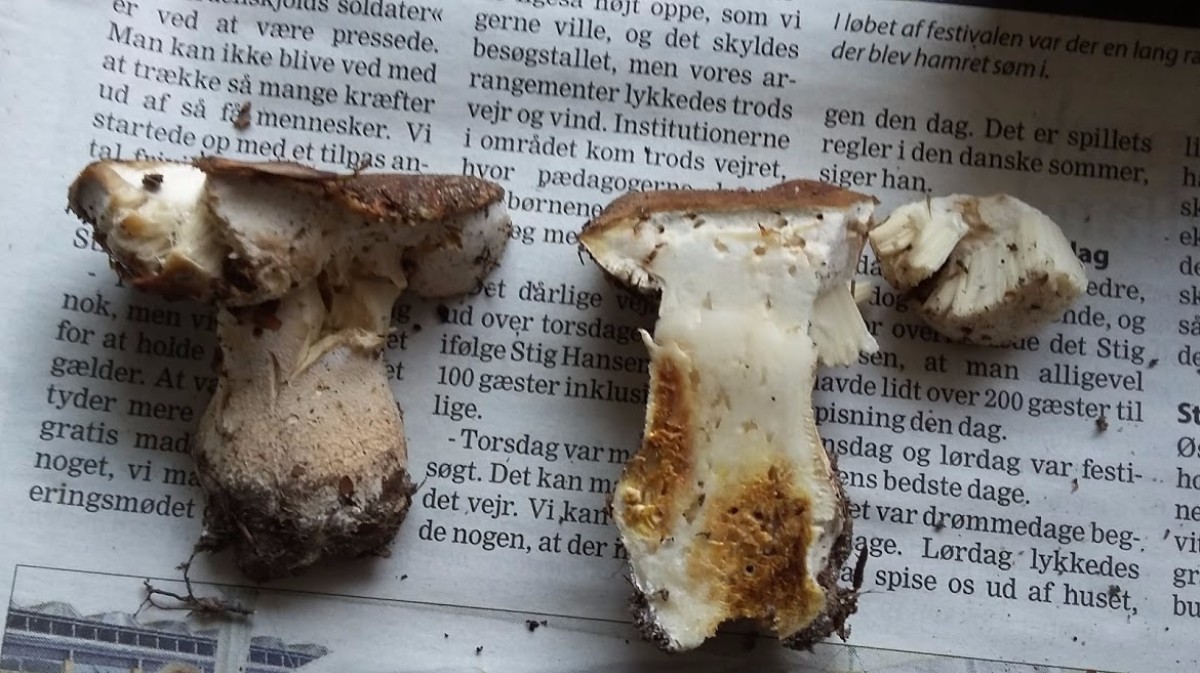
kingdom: Fungi
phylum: Ascomycota
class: Sordariomycetes
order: Hypocreales
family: Hypocreaceae
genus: Hypomyces
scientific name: Hypomyces
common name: snylteskorpe
